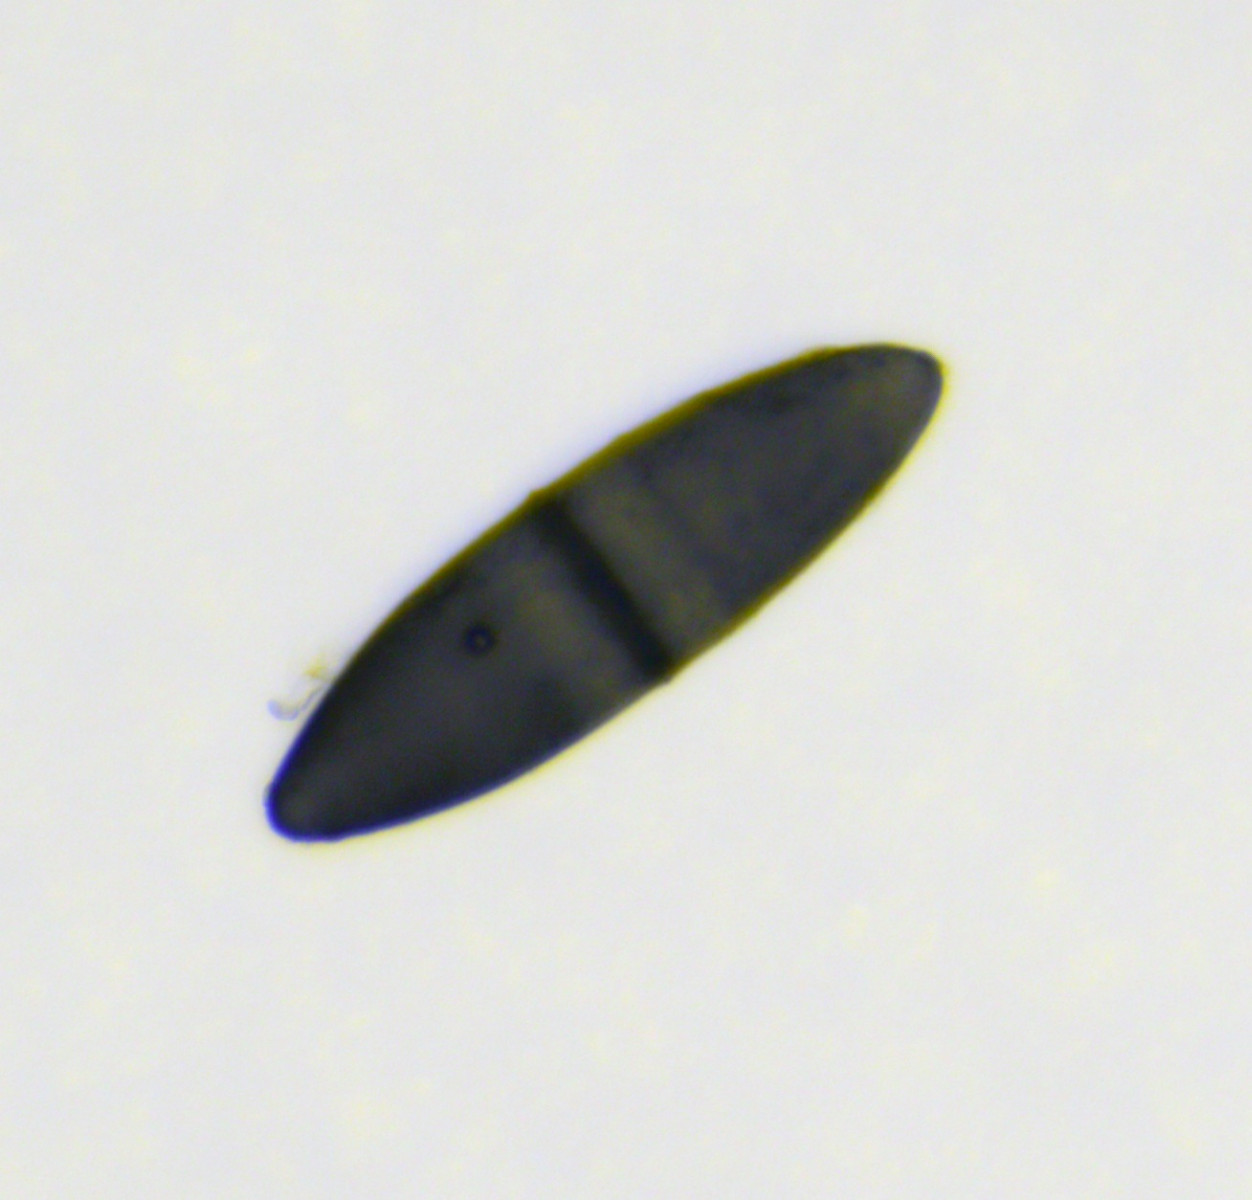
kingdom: Fungi
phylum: Ascomycota
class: Dothideomycetes
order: Pleosporales
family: Massariaceae
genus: Massaria
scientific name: Massaria
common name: kulvulkan
